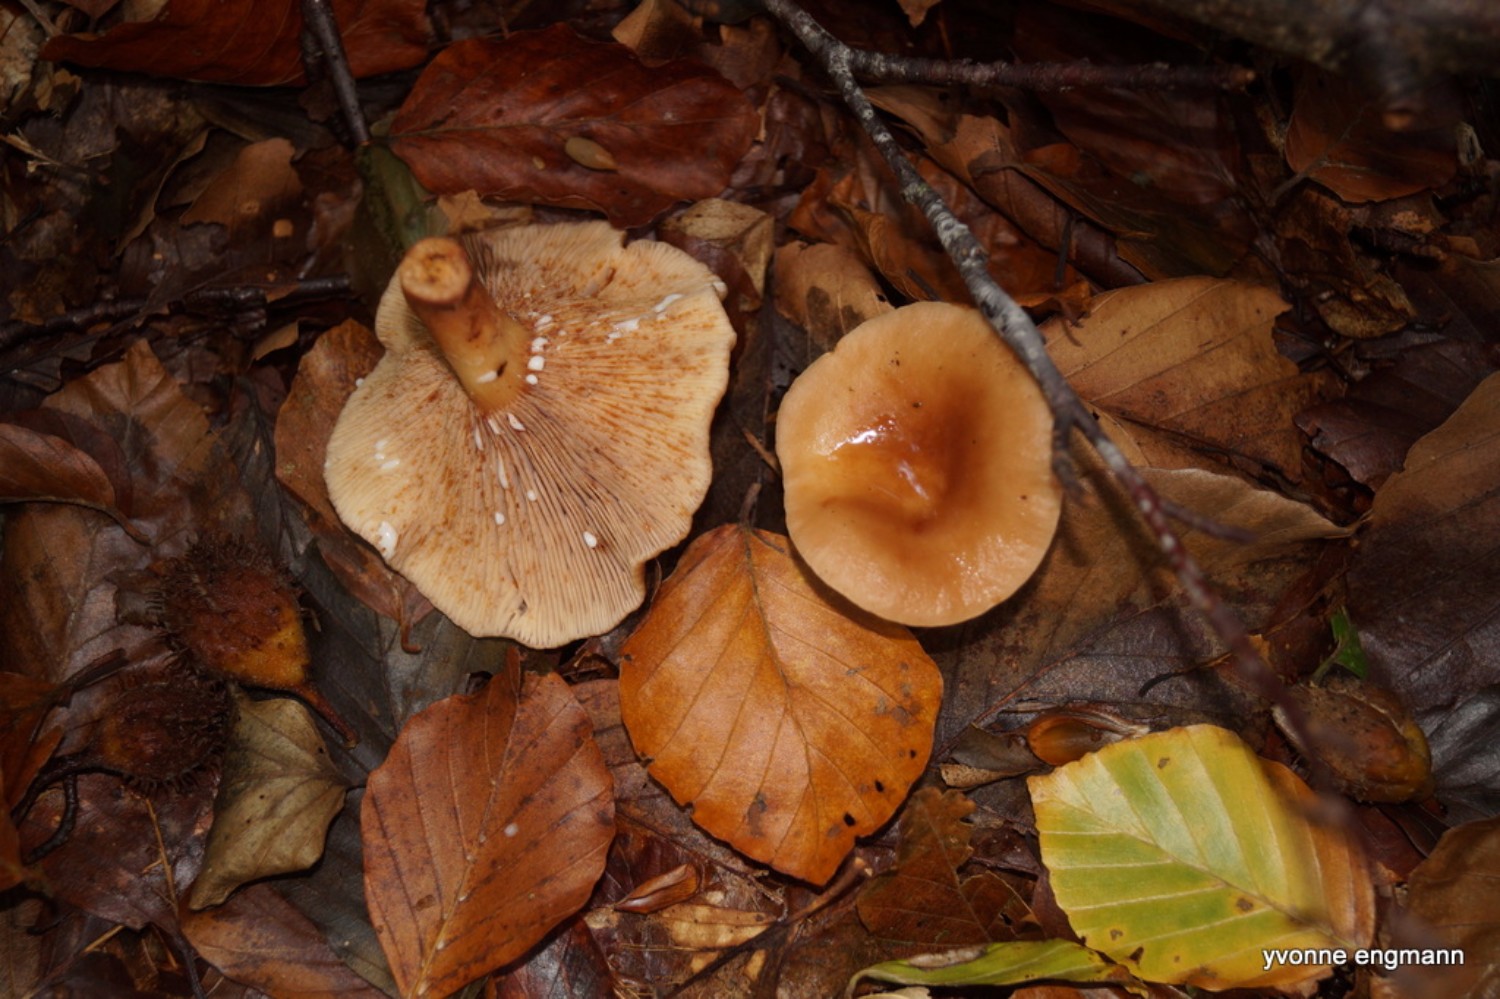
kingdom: Fungi
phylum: Basidiomycota
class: Agaricomycetes
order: Russulales
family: Russulaceae
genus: Lactarius
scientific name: Lactarius subdulcis
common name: sødlig mælkehat
